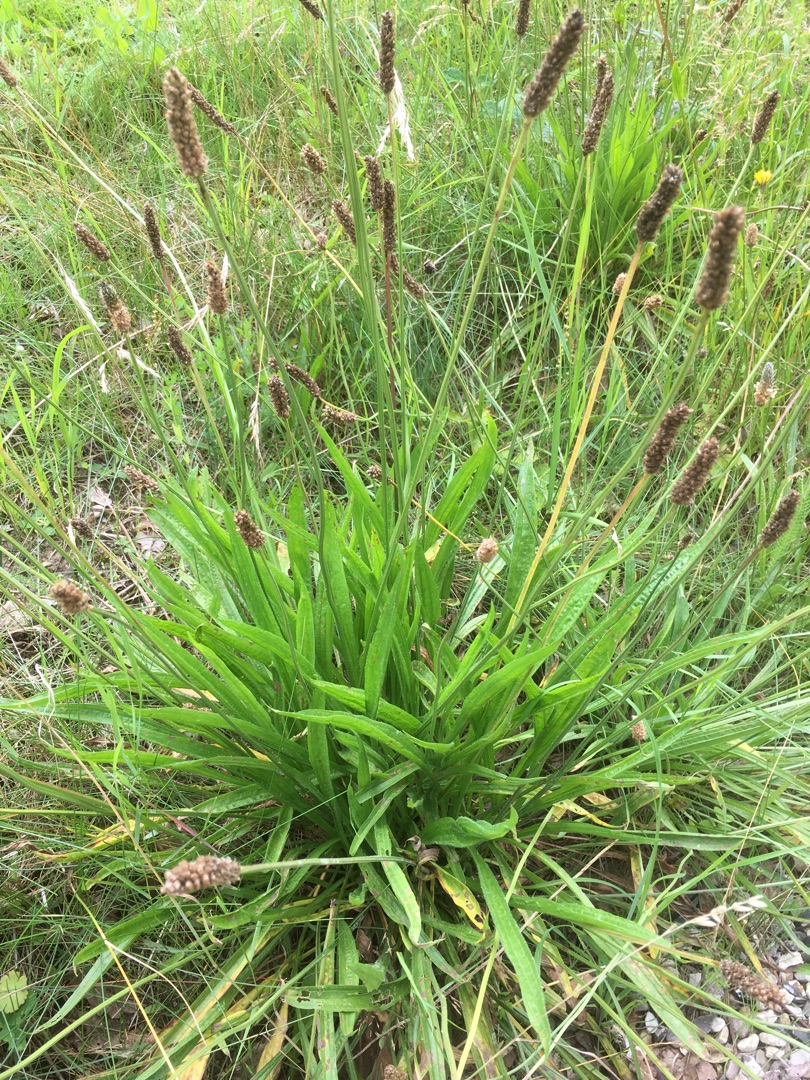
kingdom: Plantae
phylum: Tracheophyta
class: Magnoliopsida
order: Lamiales
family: Plantaginaceae
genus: Plantago
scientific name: Plantago lanceolata
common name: Lancet-vejbred
